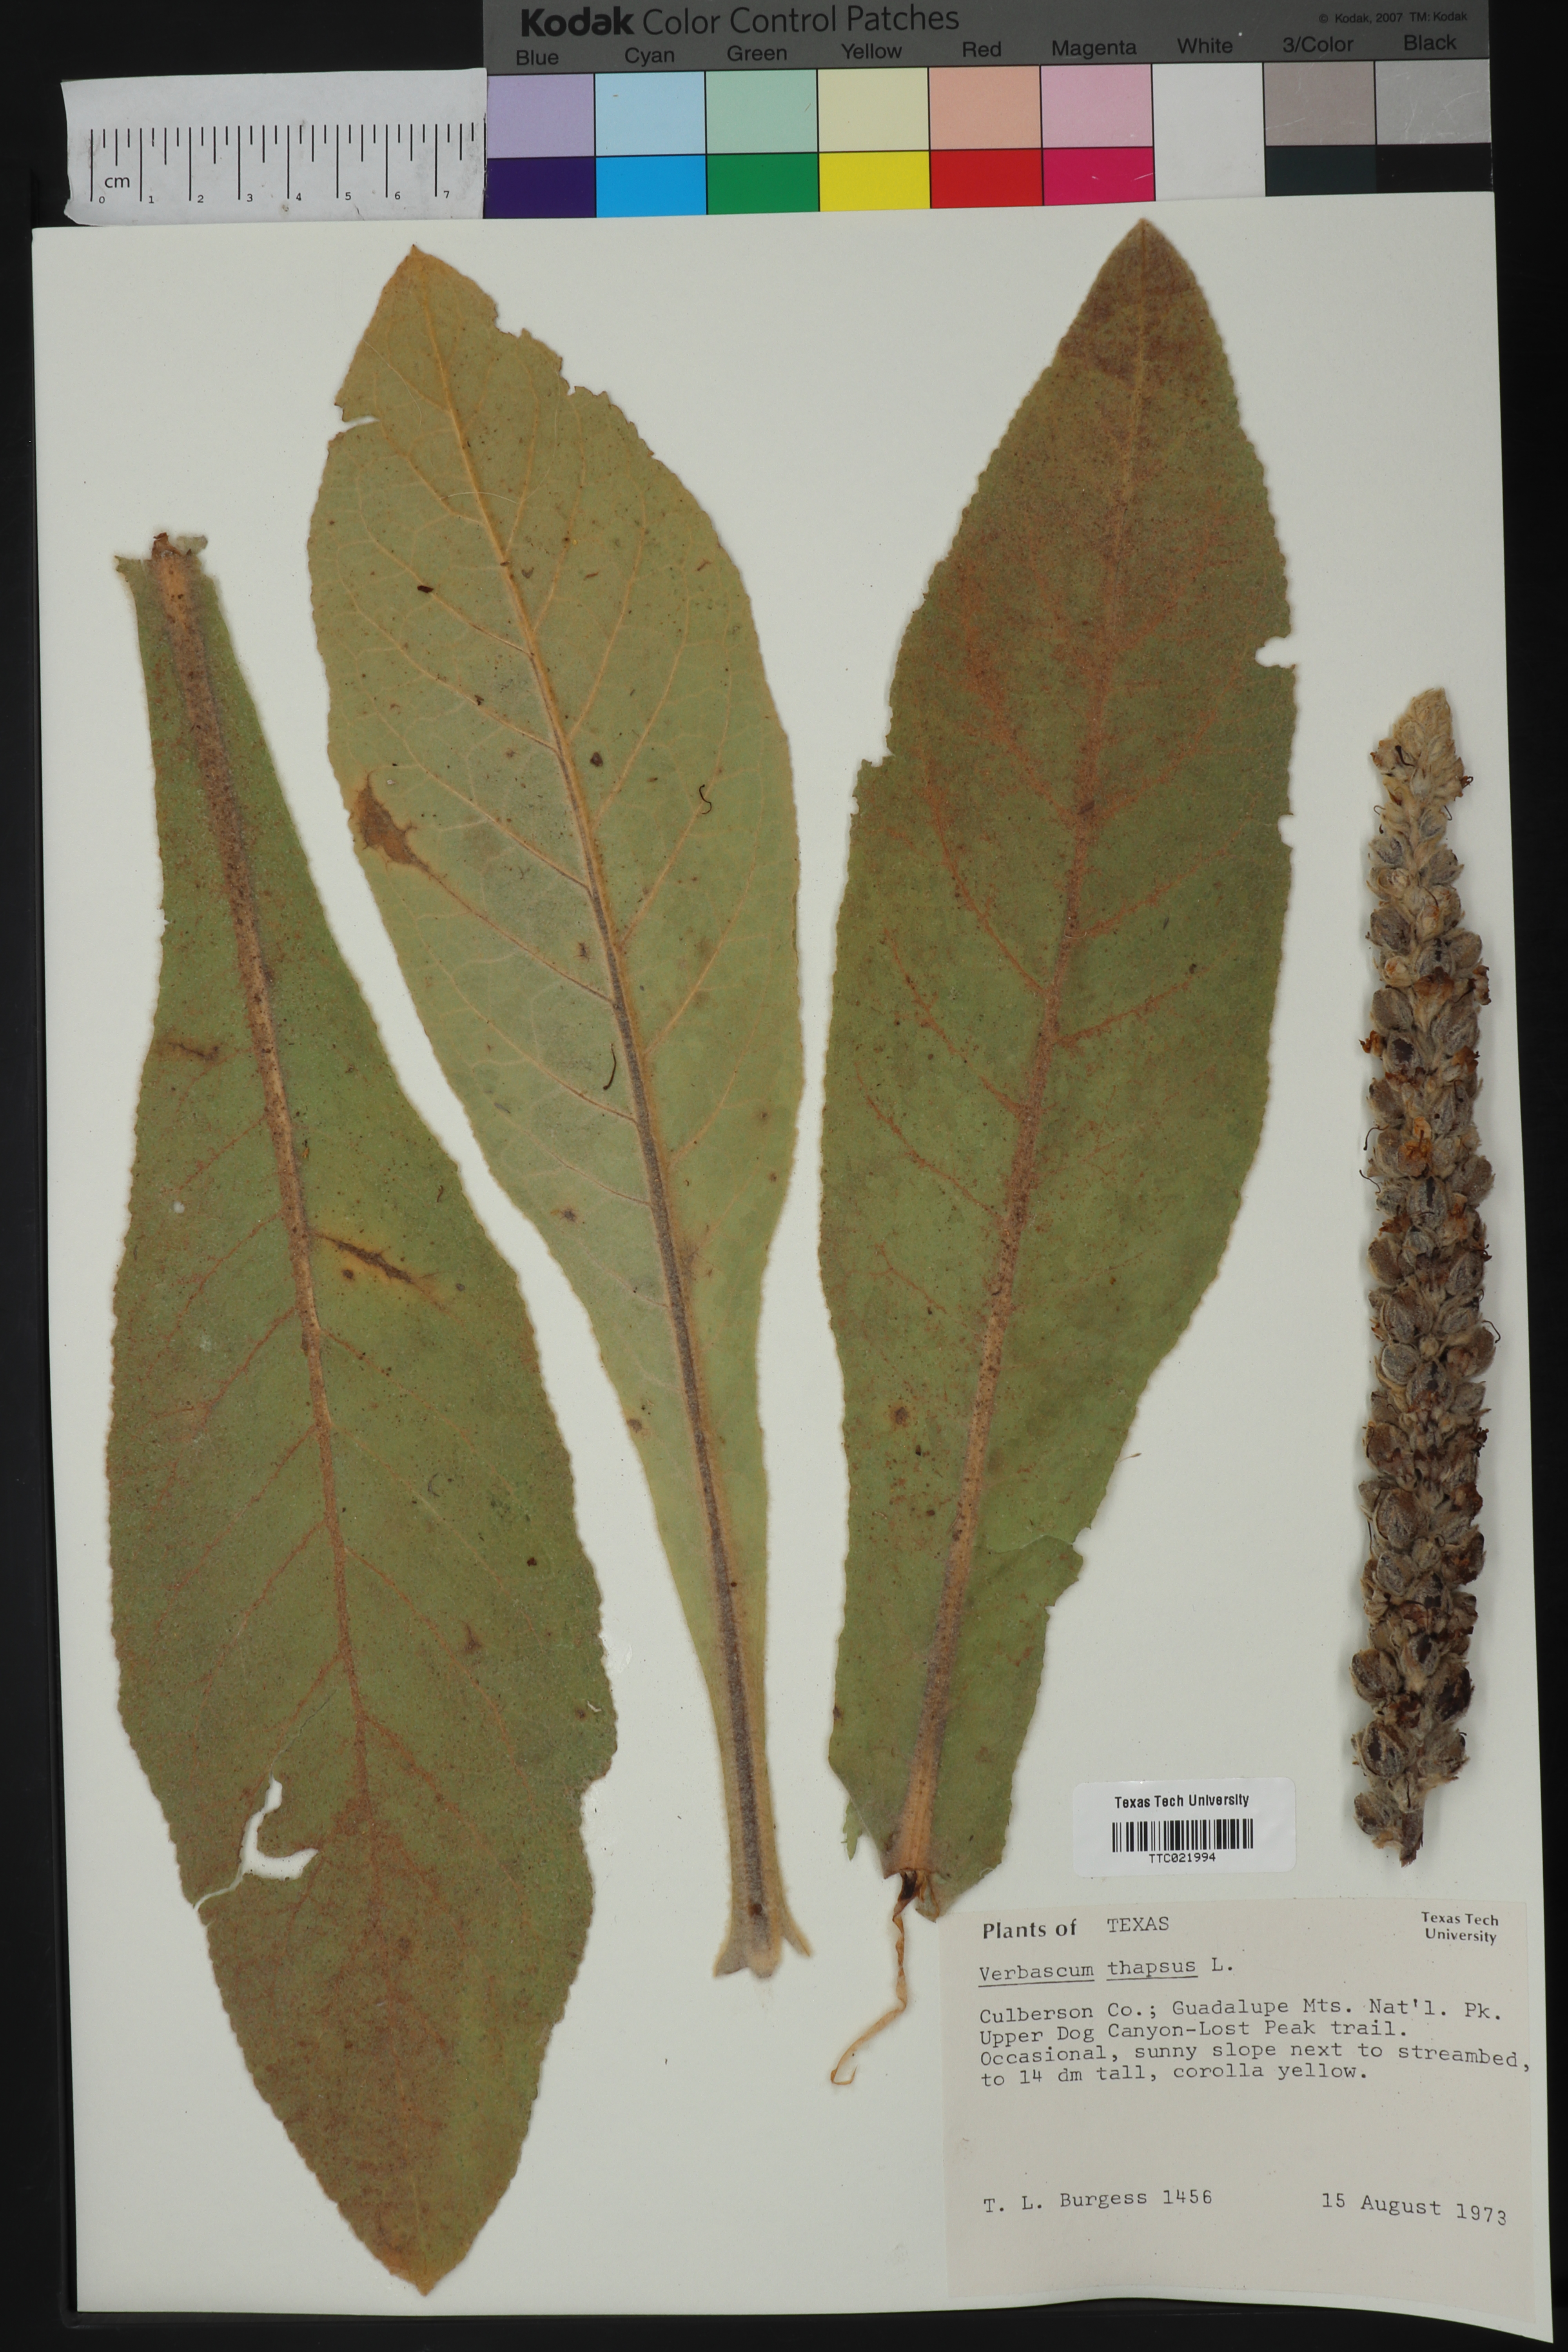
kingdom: Plantae
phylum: Tracheophyta
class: Magnoliopsida
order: Lamiales
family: Scrophulariaceae
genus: Verbascum
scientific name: Verbascum thapsus
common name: Common mullein
